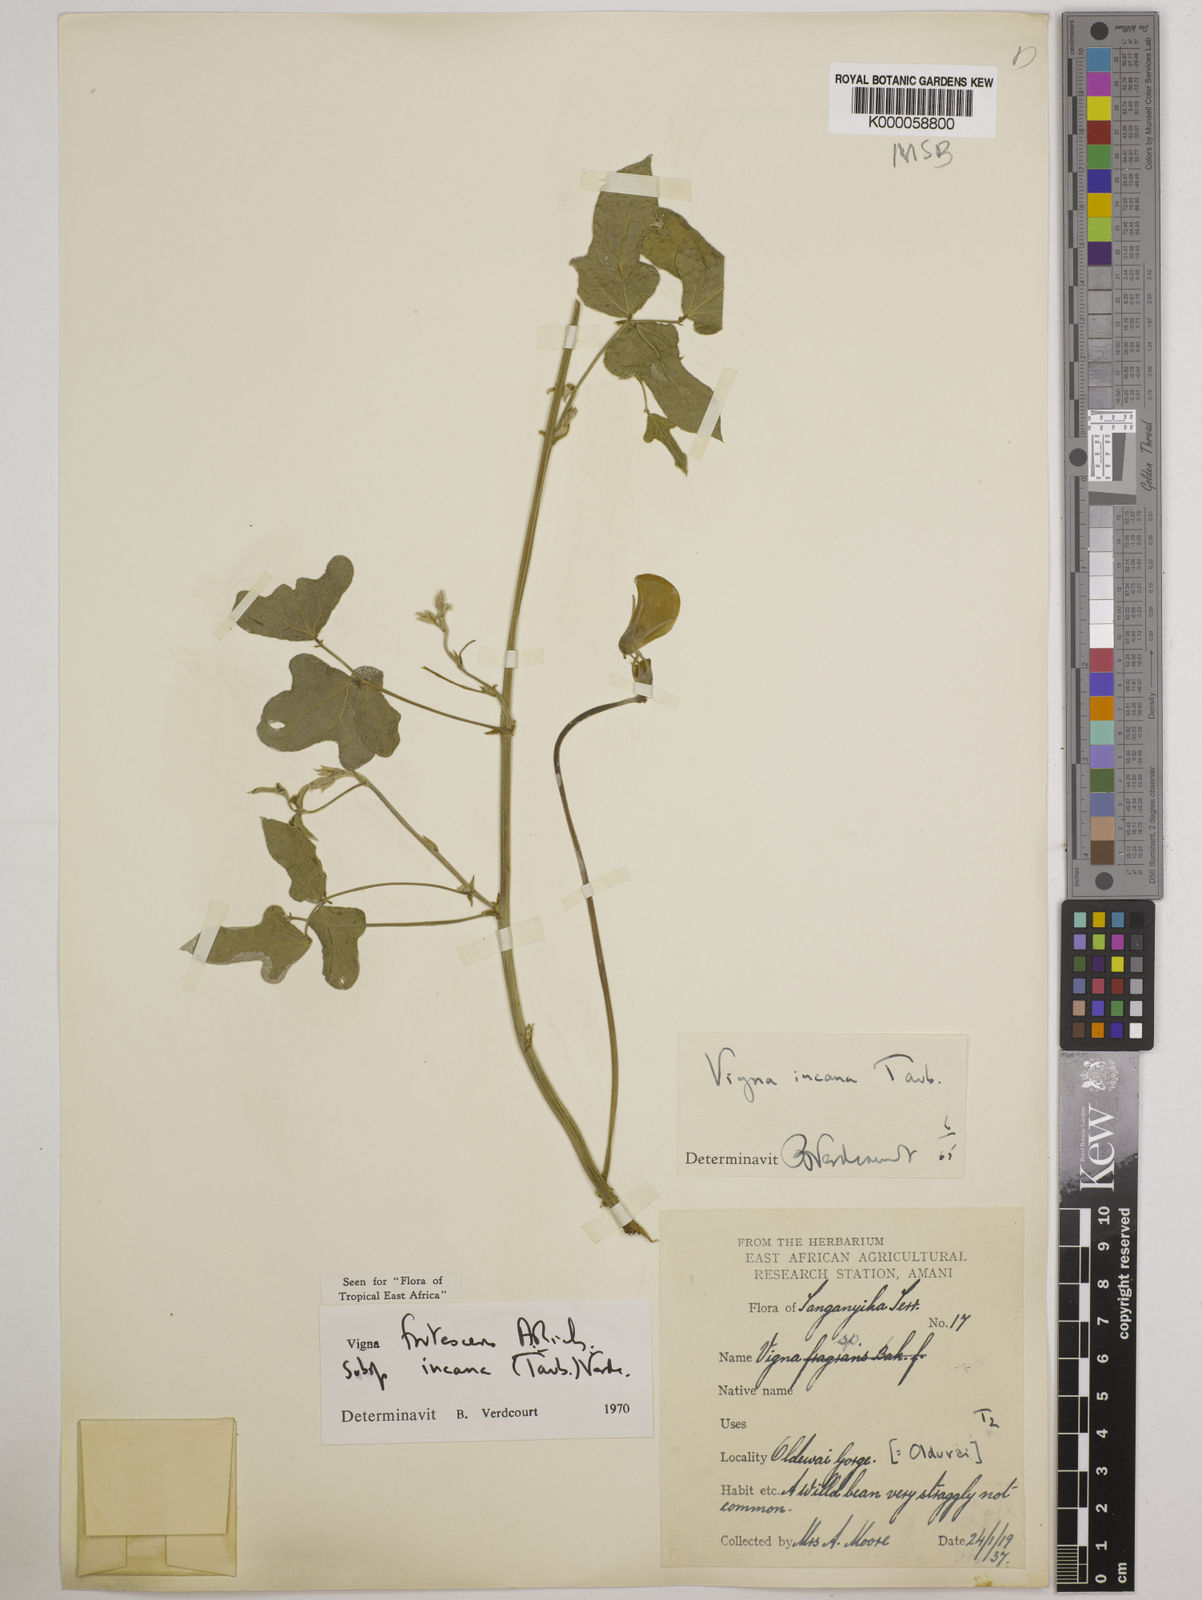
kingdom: Plantae
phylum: Tracheophyta
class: Magnoliopsida
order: Fabales
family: Fabaceae
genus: Vigna
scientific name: Vigna
